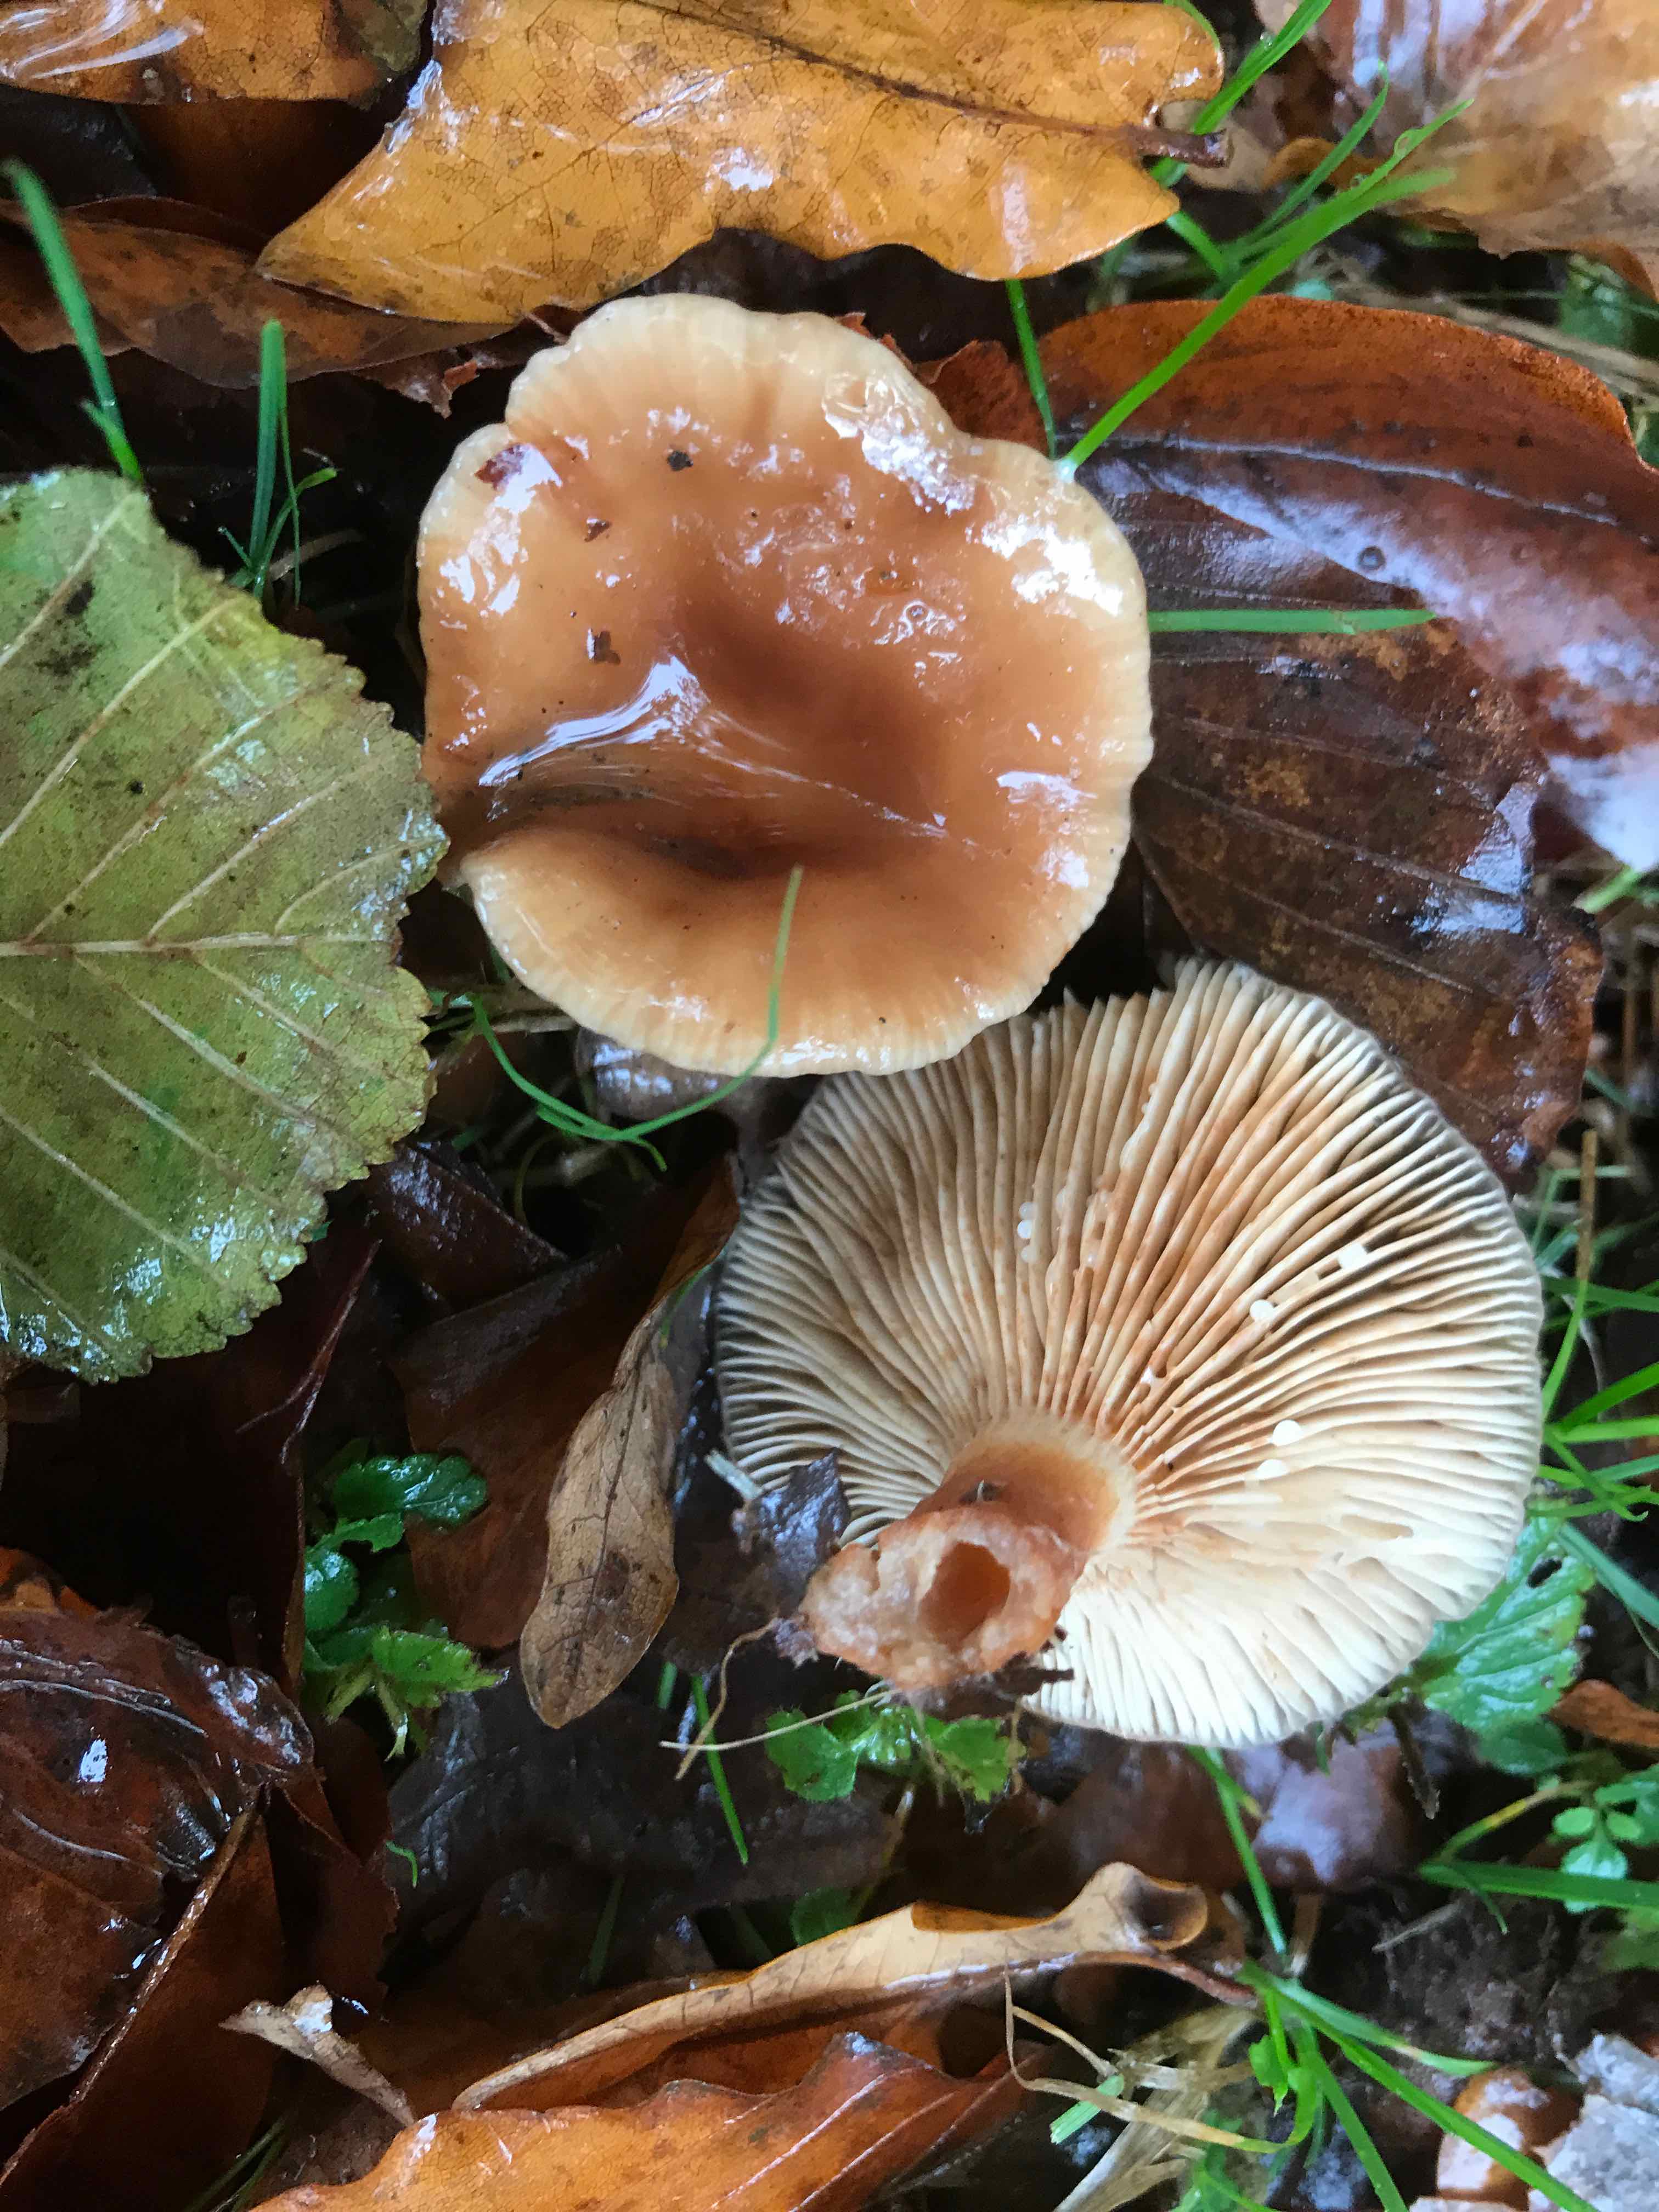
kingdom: Fungi
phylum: Basidiomycota
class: Agaricomycetes
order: Russulales
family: Russulaceae
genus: Lactarius
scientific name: Lactarius subdulcis
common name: sødlig mælkehat
